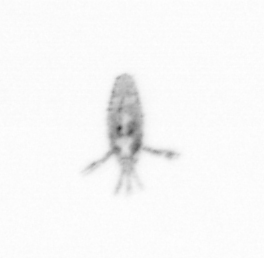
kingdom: Animalia
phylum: Arthropoda
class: Copepoda
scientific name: Copepoda
